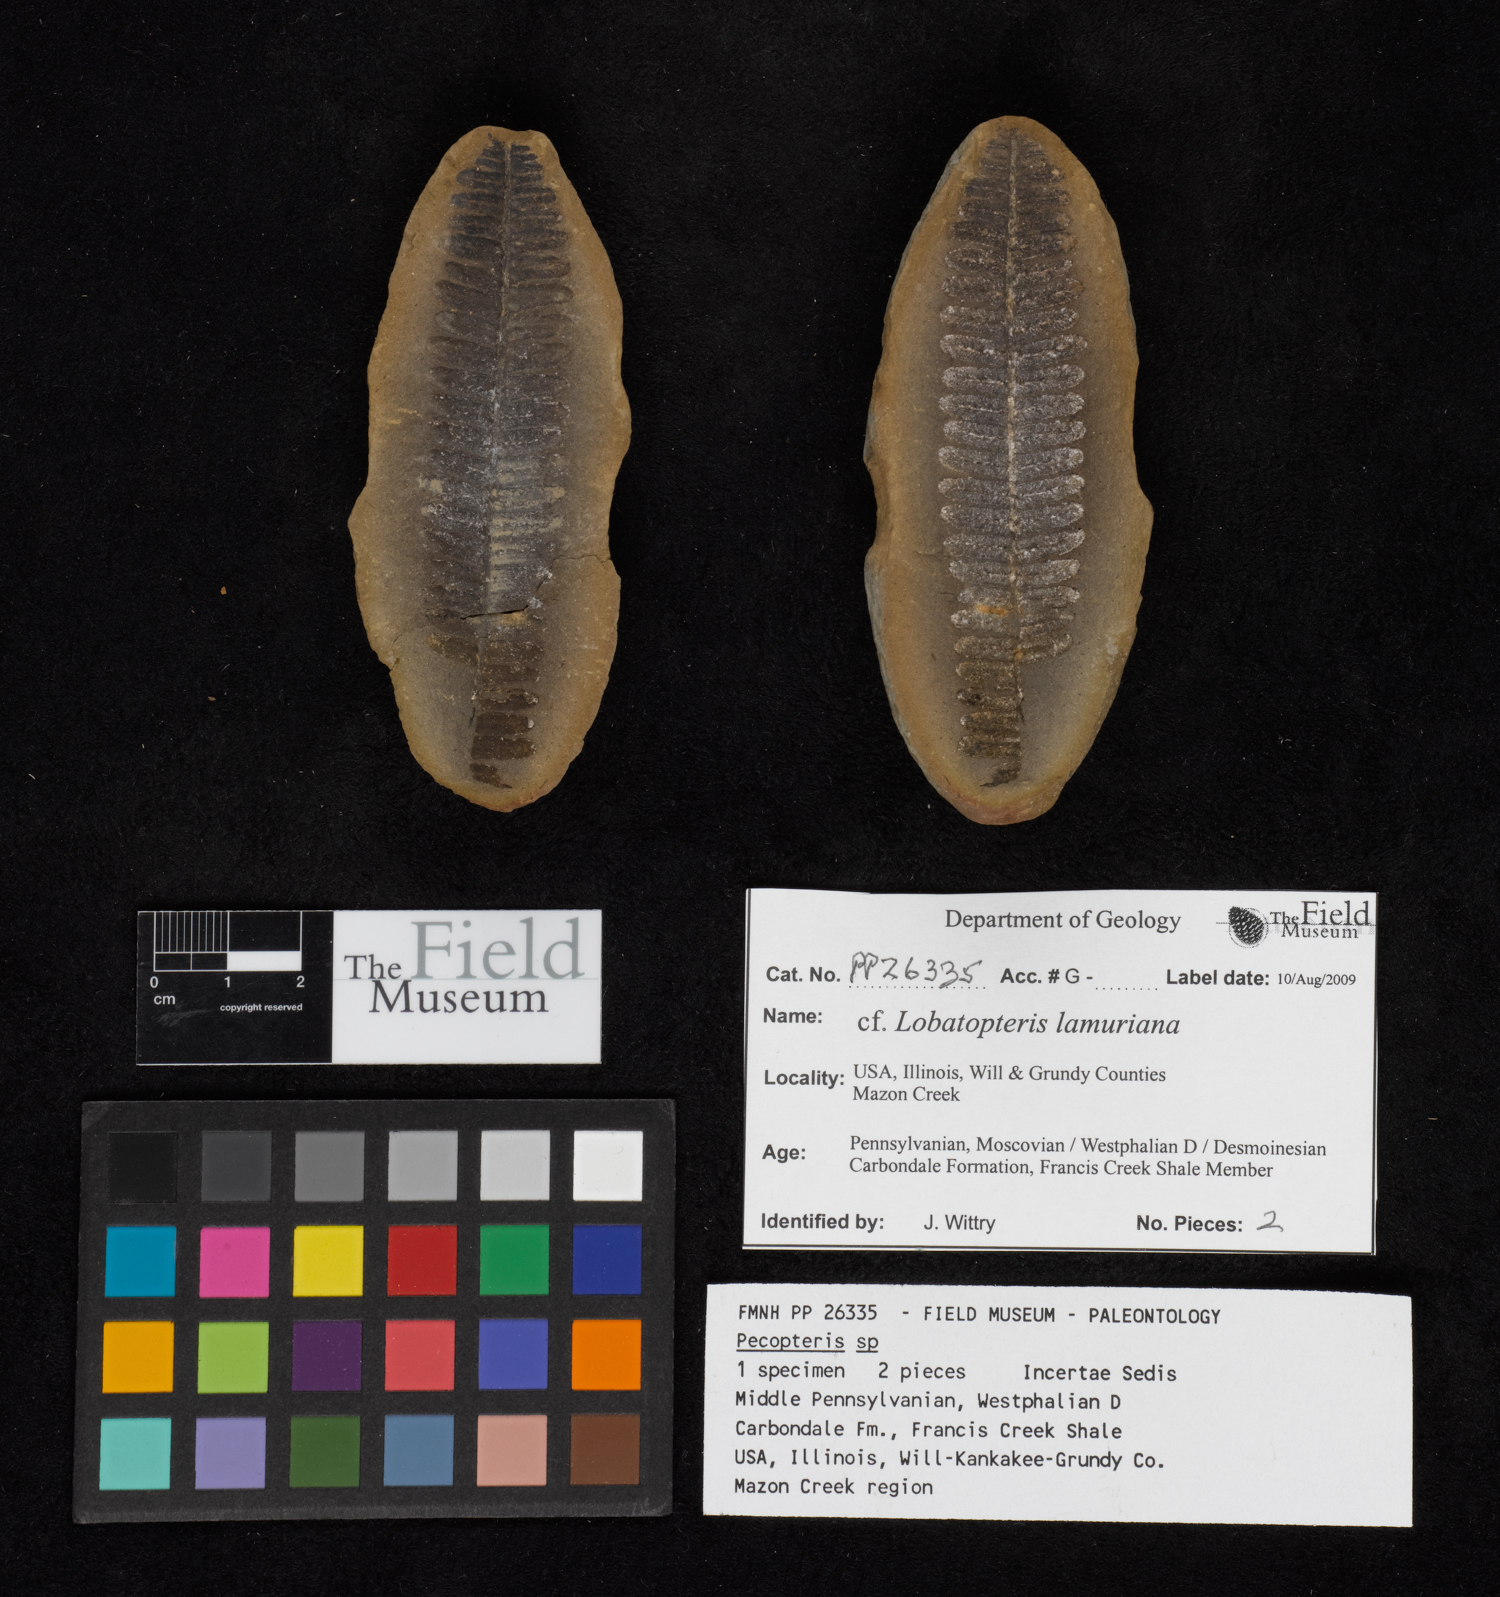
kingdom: Plantae
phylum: Tracheophyta
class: Polypodiopsida
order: Marattiales
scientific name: Marattiales
